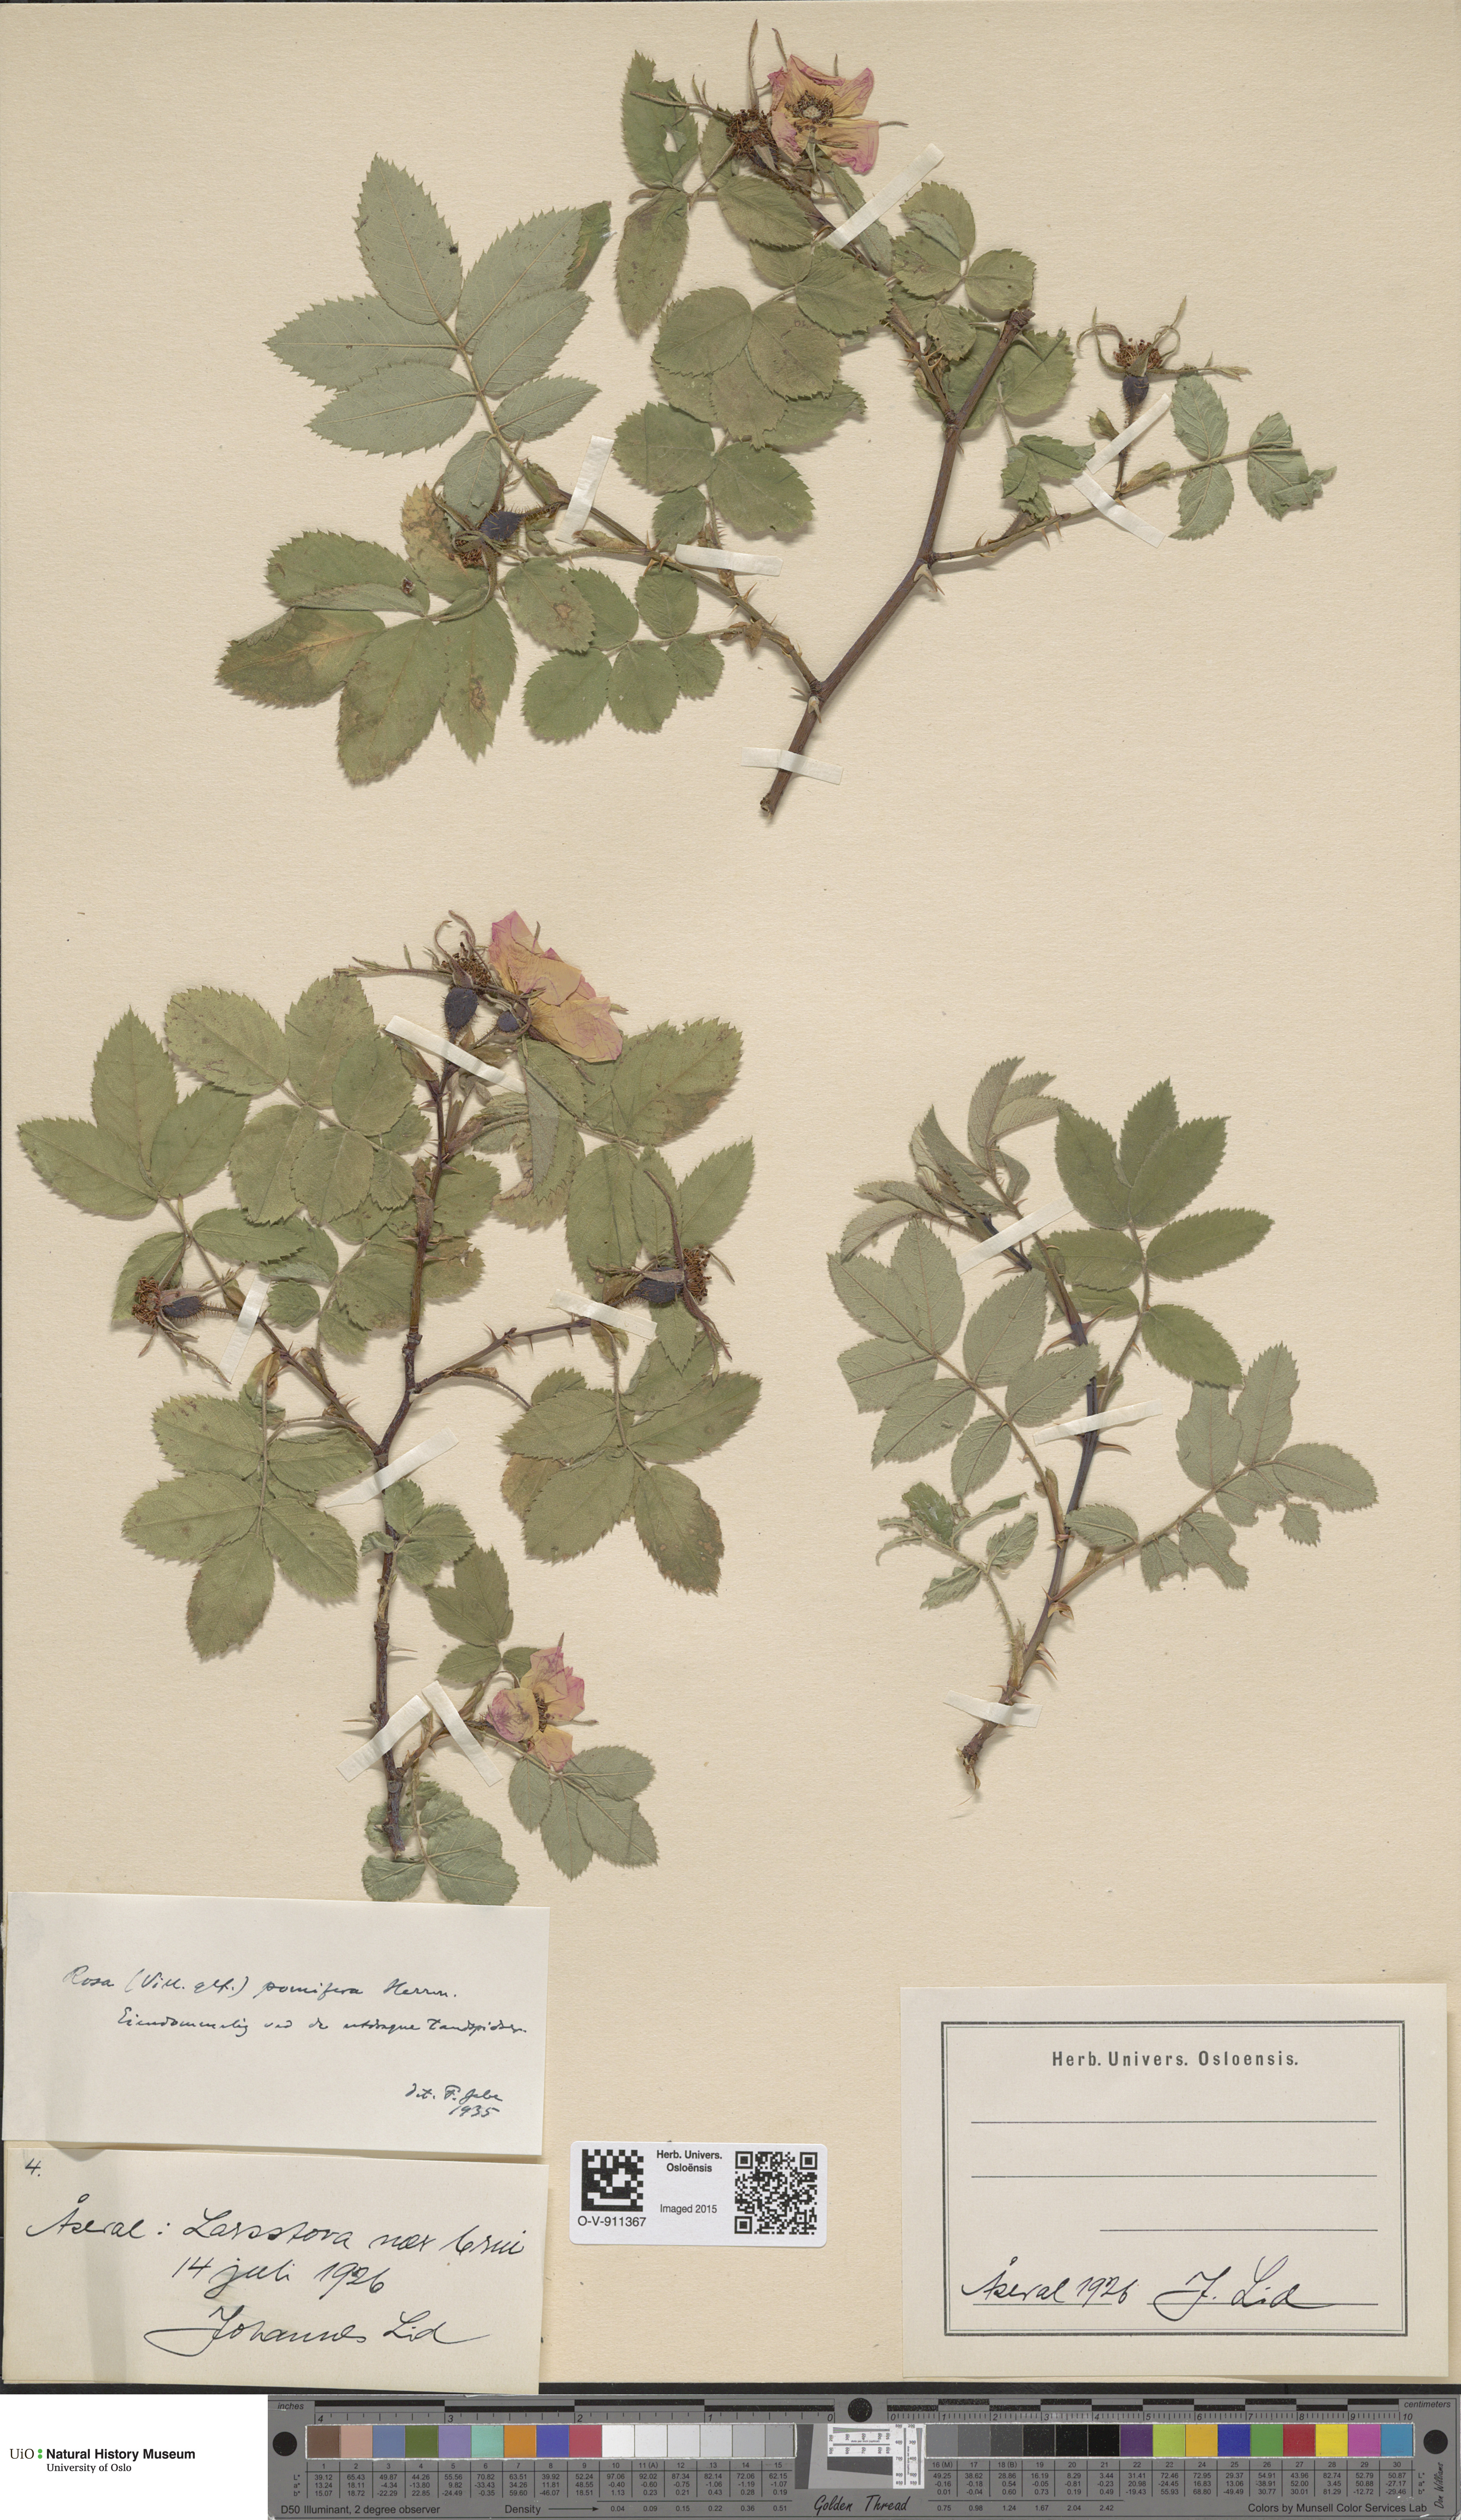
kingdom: Plantae
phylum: Tracheophyta
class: Magnoliopsida
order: Rosales
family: Rosaceae
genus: Rosa
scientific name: Rosa villosa
